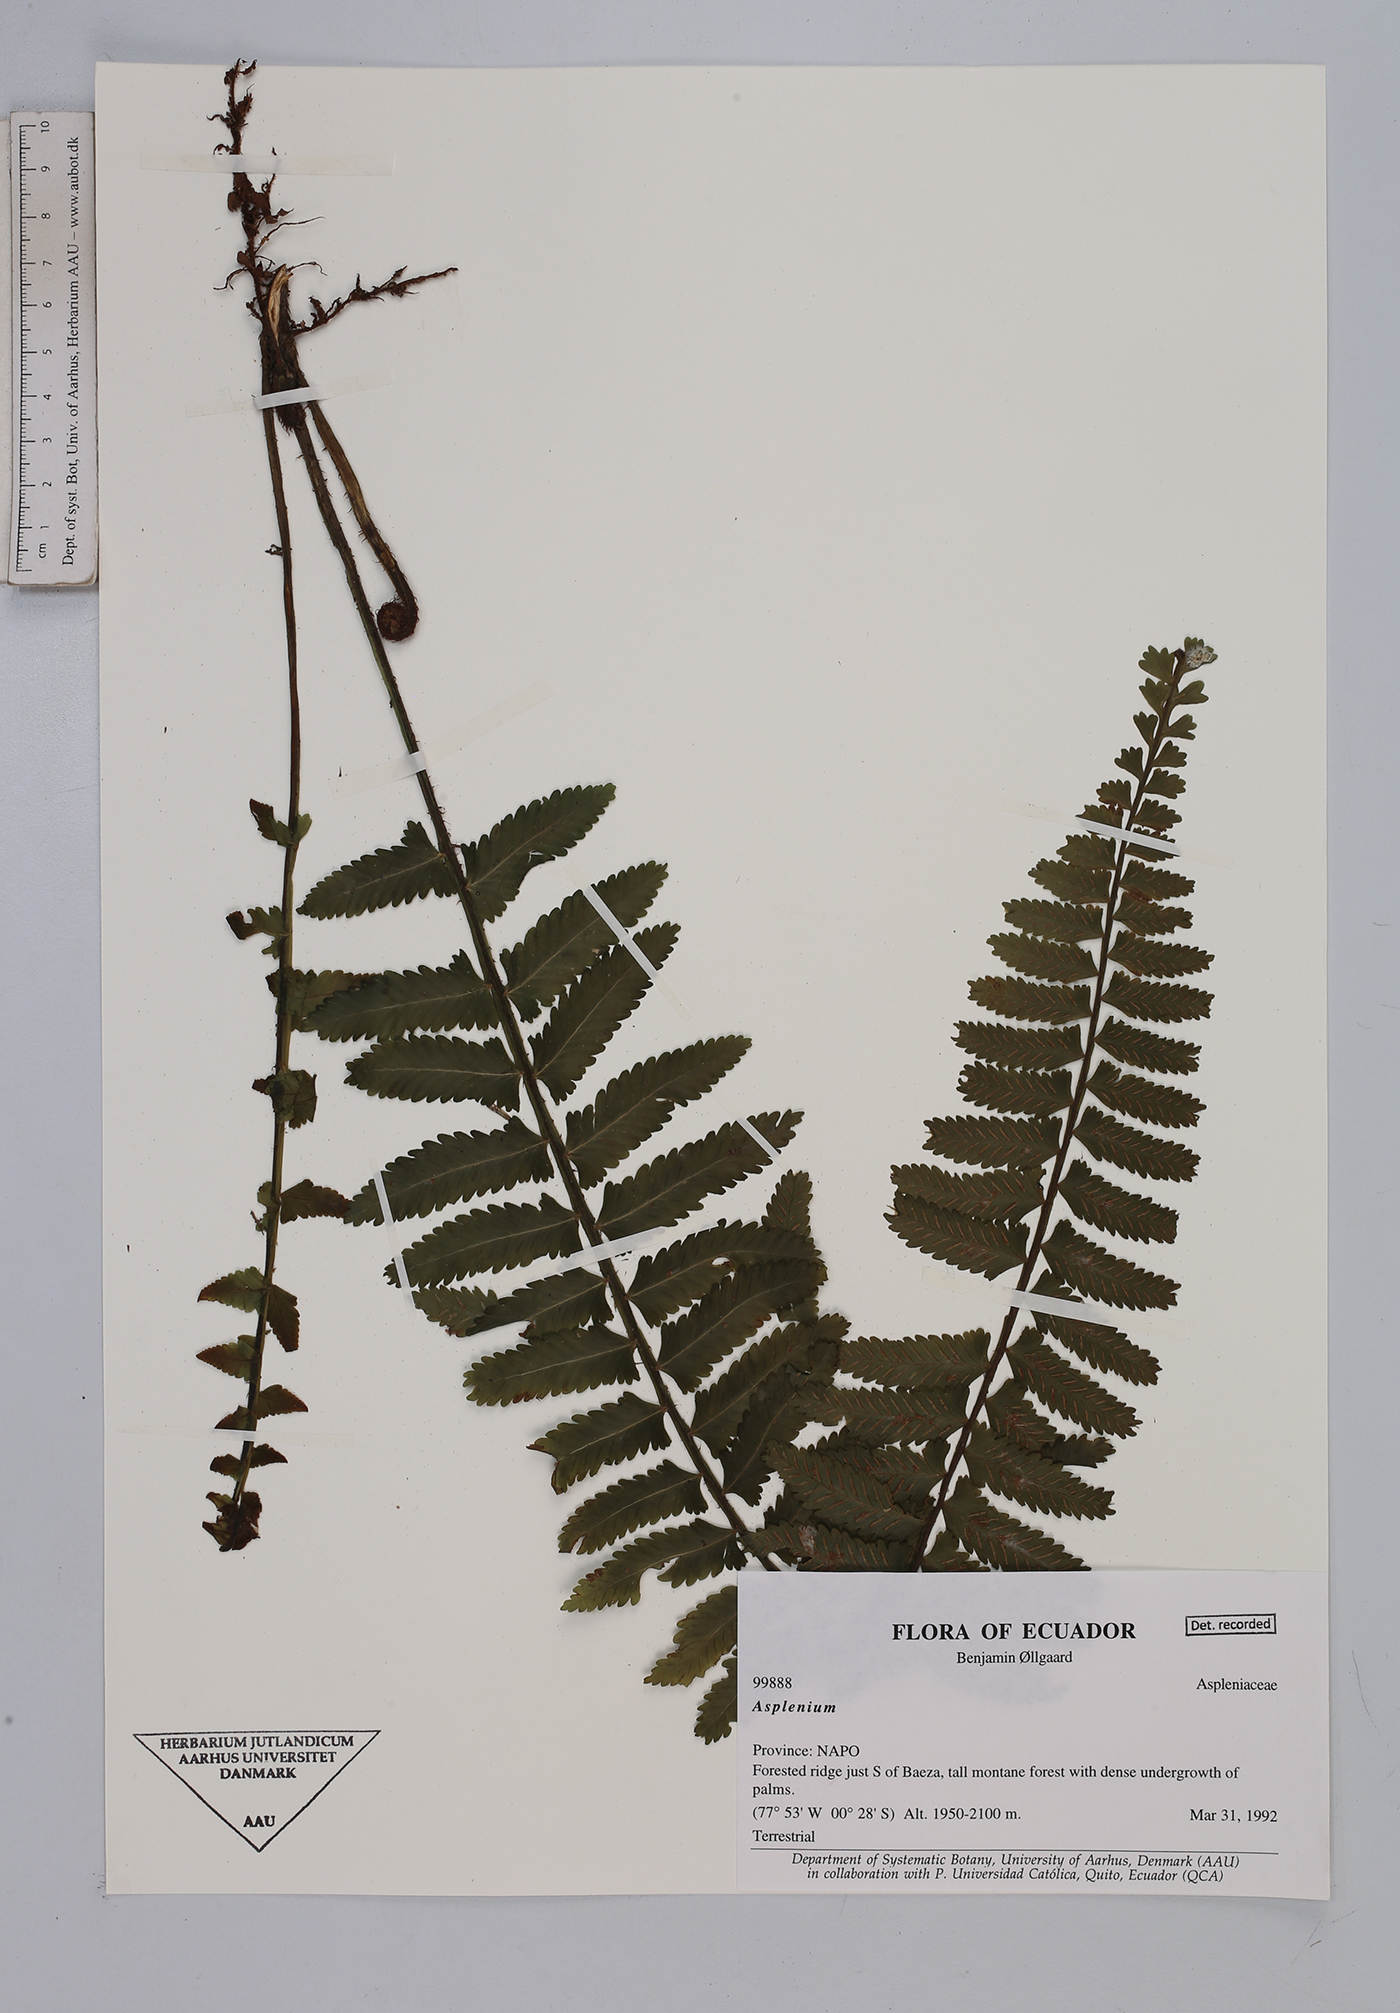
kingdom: Plantae
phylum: Tracheophyta
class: Polypodiopsida
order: Polypodiales
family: Aspleniaceae
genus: Asplenium
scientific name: Asplenium
